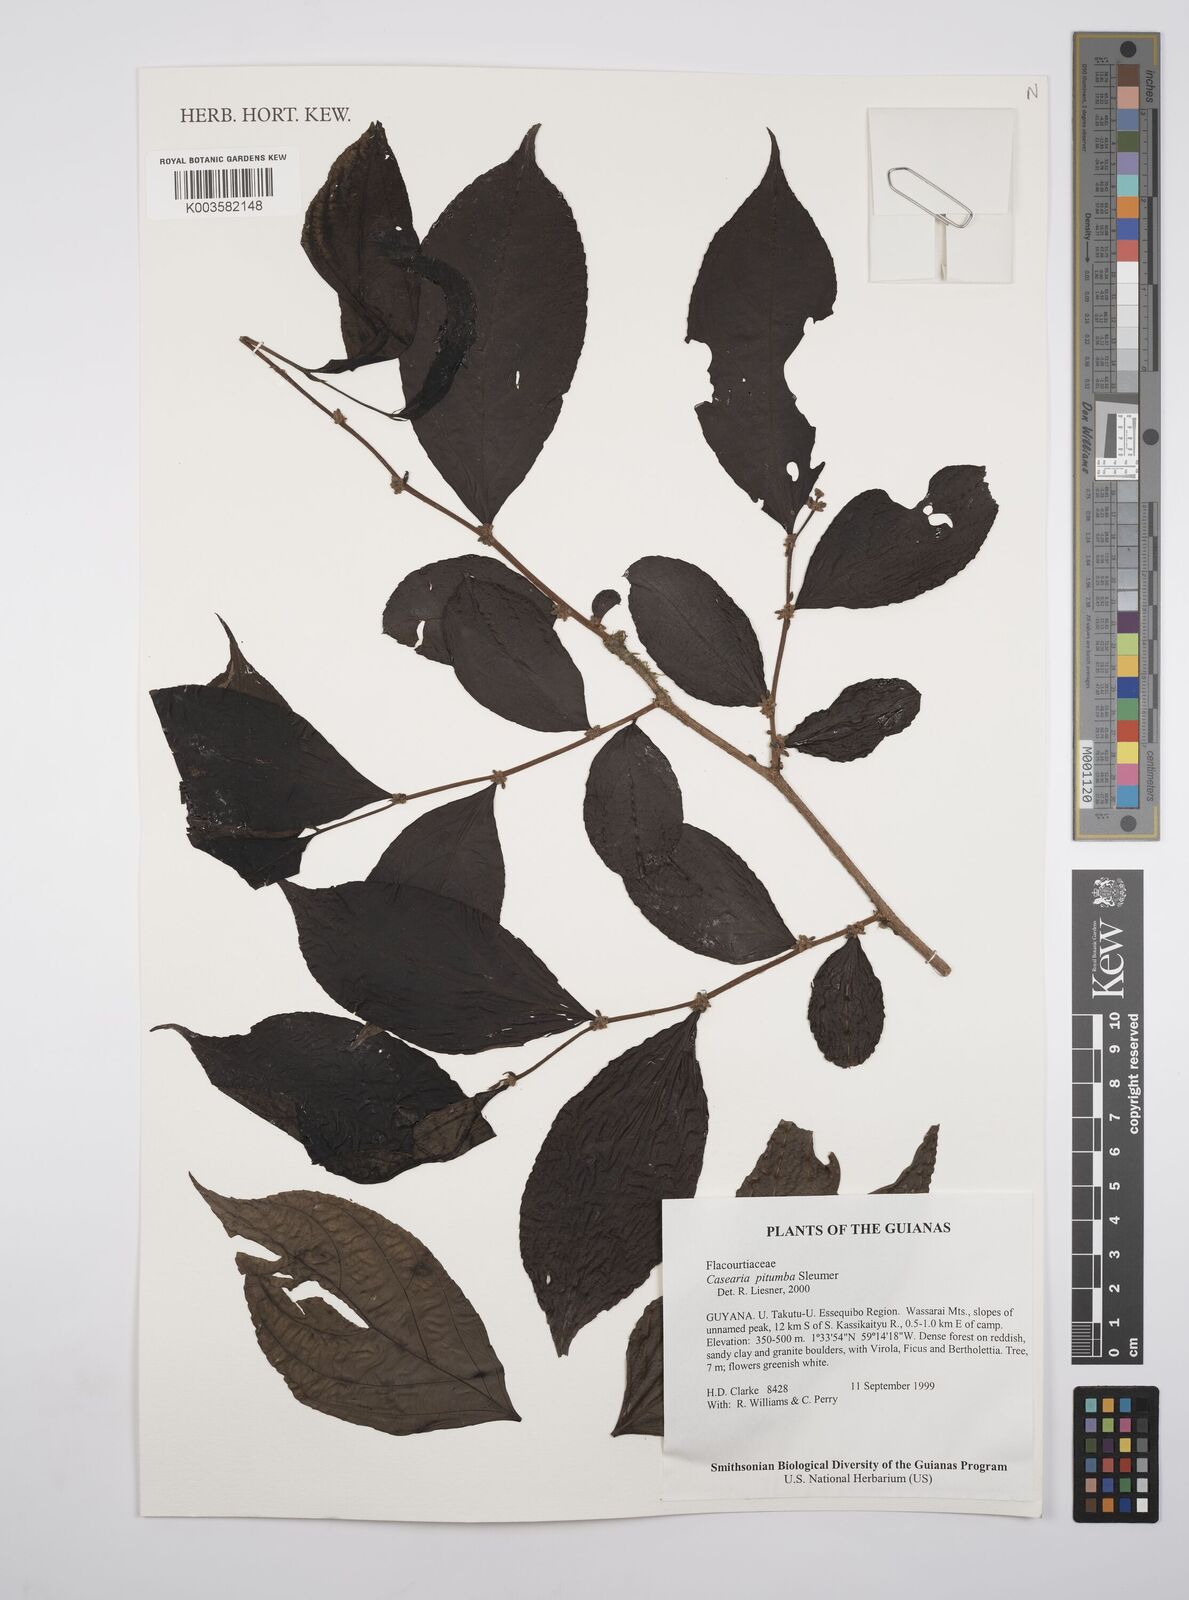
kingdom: Plantae
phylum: Tracheophyta
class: Magnoliopsida
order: Malpighiales
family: Salicaceae
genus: Casearia
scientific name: Casearia pitumba
